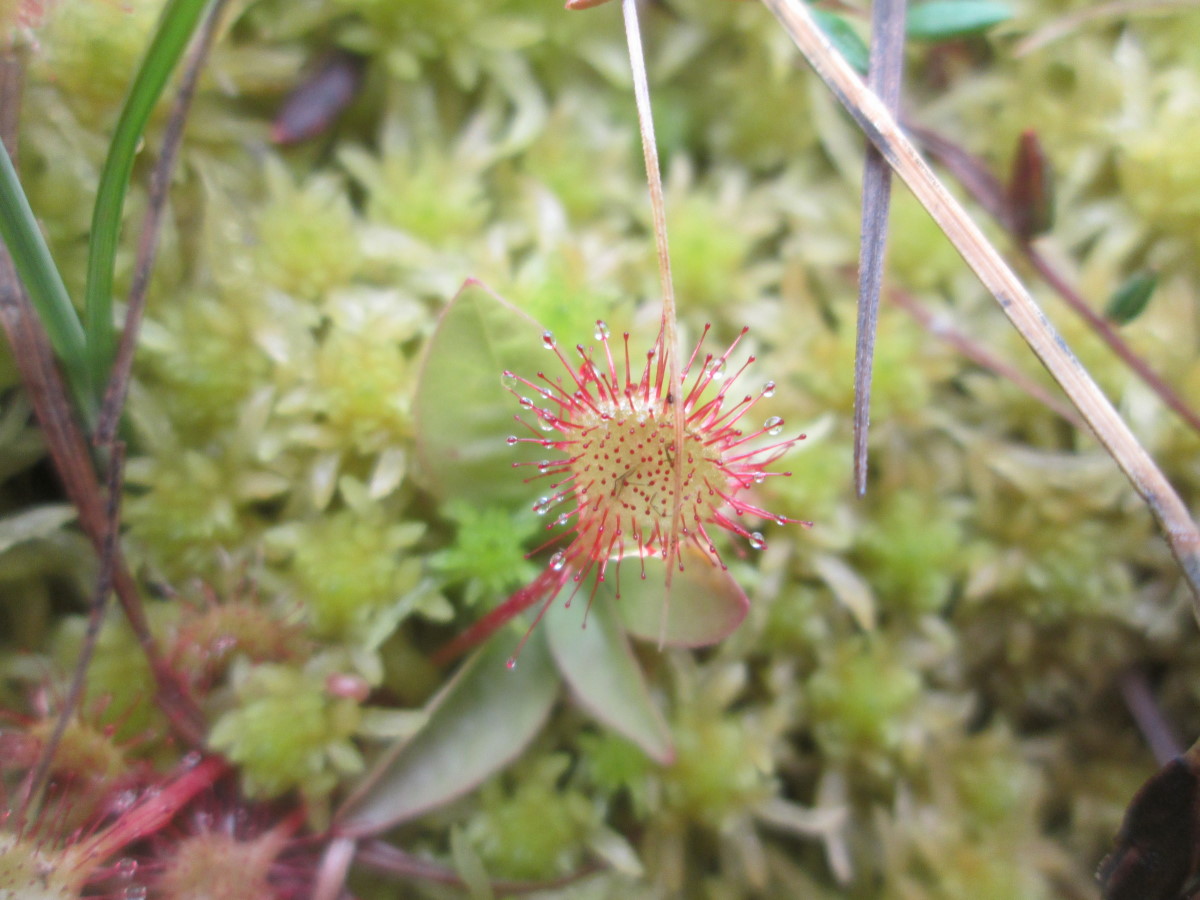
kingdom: Plantae
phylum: Tracheophyta
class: Magnoliopsida
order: Caryophyllales
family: Droseraceae
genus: Drosera
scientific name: Drosera rotundifolia
